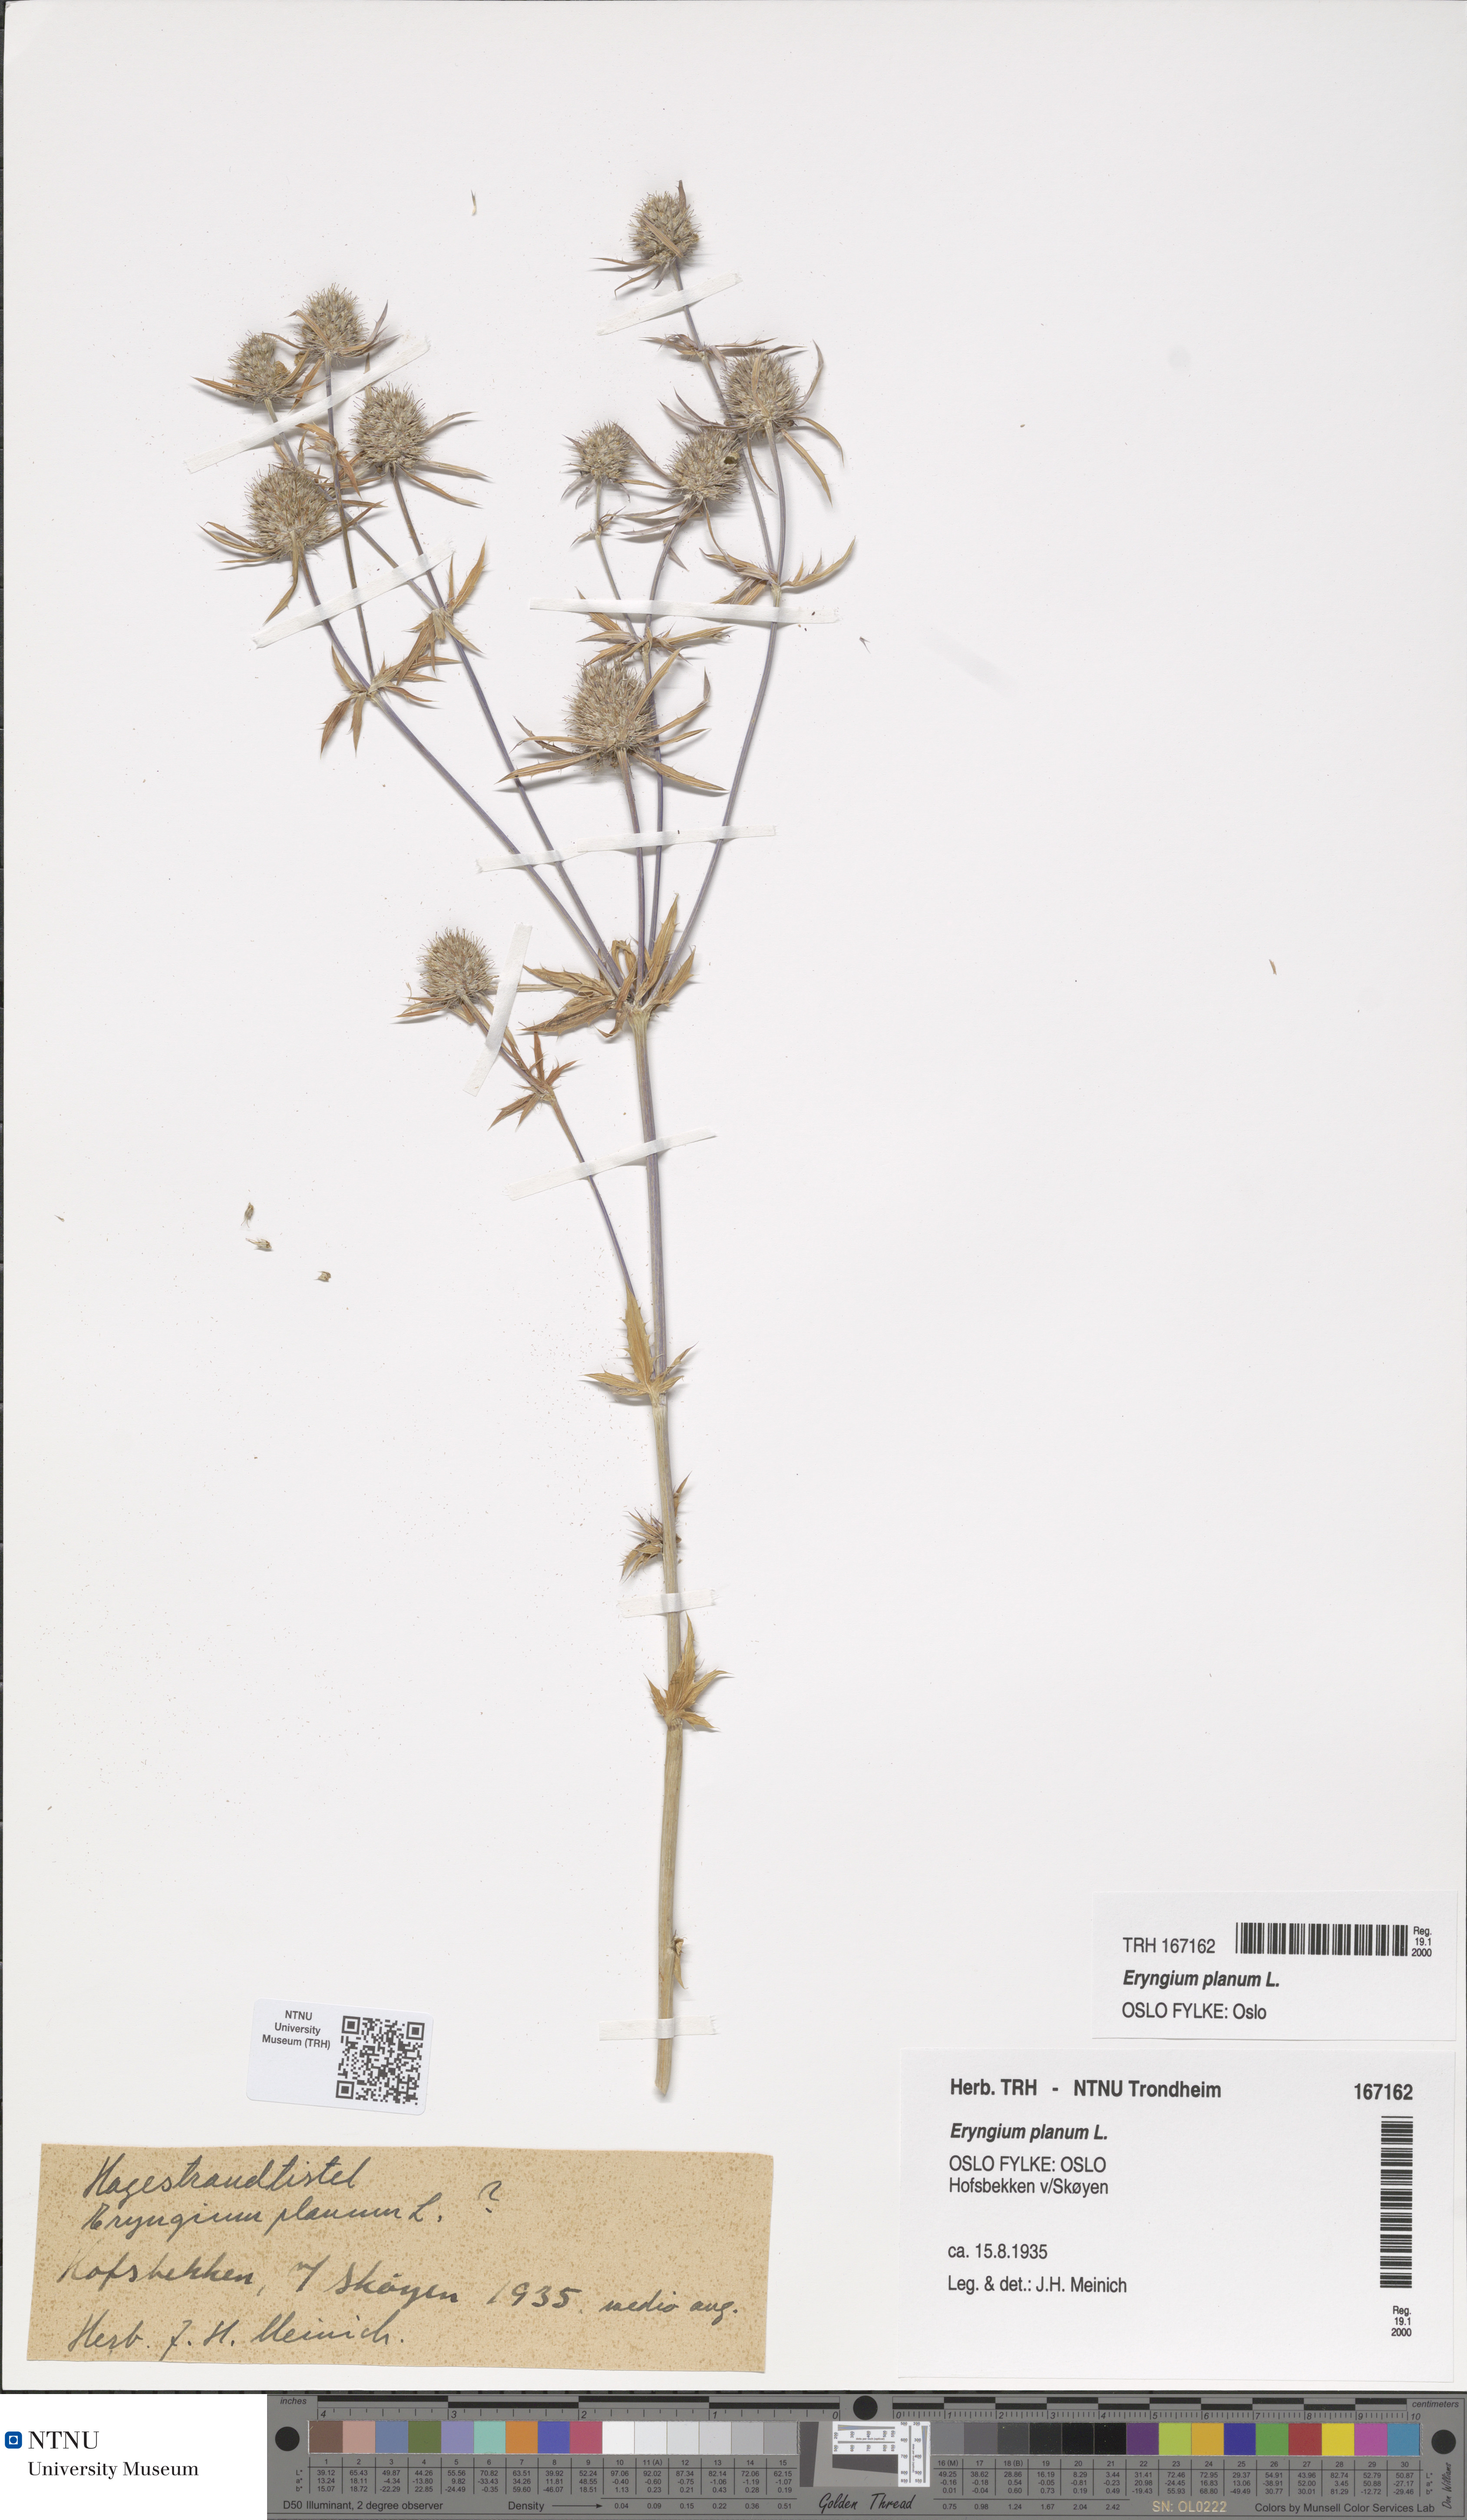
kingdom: Plantae
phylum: Tracheophyta
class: Magnoliopsida
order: Apiales
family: Apiaceae
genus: Eryngium
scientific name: Eryngium planum
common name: Blue eryngo
